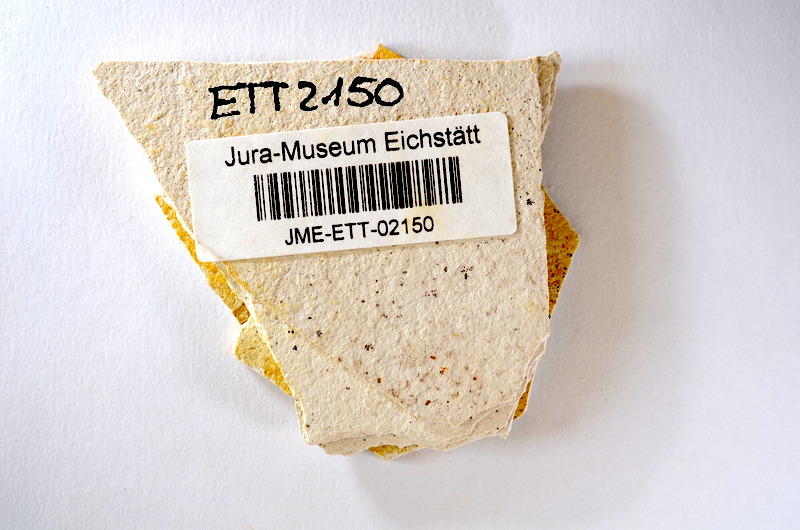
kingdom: Animalia
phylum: Chordata
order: Salmoniformes
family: Orthogonikleithridae
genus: Orthogonikleithrus
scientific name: Orthogonikleithrus hoelli
